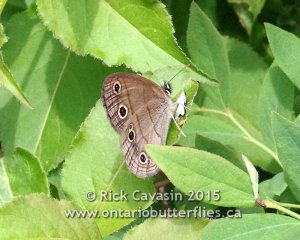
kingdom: Animalia
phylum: Arthropoda
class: Insecta
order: Lepidoptera
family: Nymphalidae
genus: Euptychia
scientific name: Euptychia cymela
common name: Little Wood Satyr
